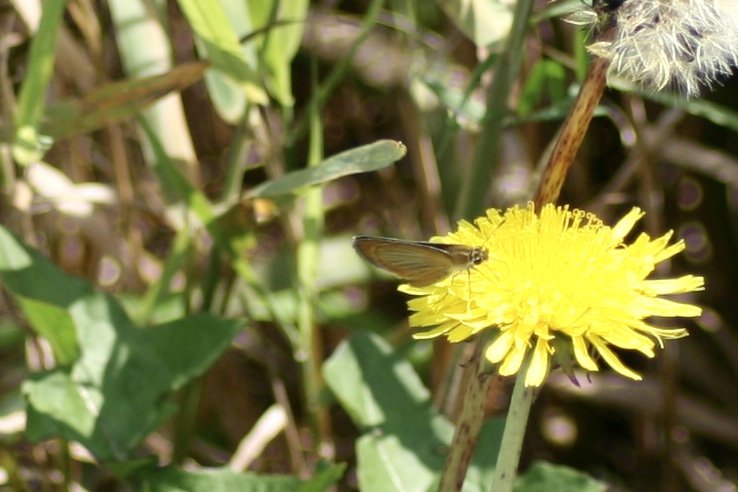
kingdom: Animalia
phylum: Arthropoda
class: Insecta
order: Lepidoptera
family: Hesperiidae
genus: Ancyloxypha
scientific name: Ancyloxypha numitor
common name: Least Skipper
